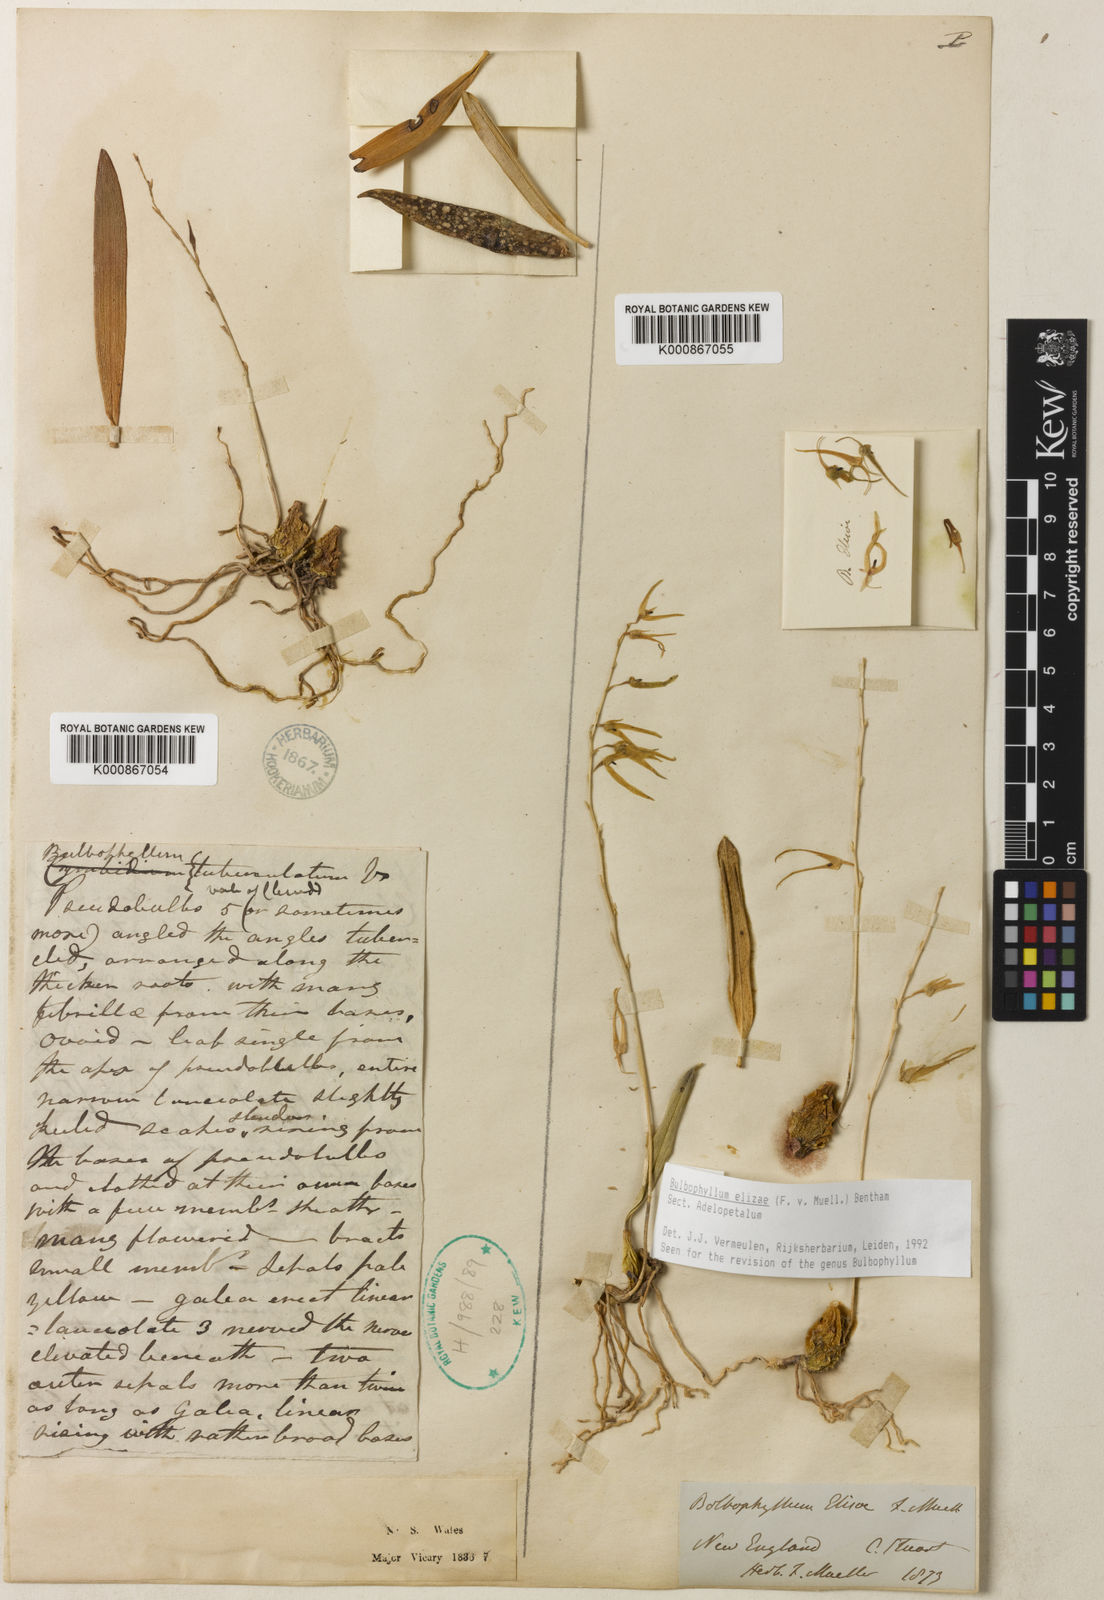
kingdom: Plantae
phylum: Tracheophyta
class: Liliopsida
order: Asparagales
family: Orchidaceae
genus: Bulbophyllum
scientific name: Bulbophyllum
